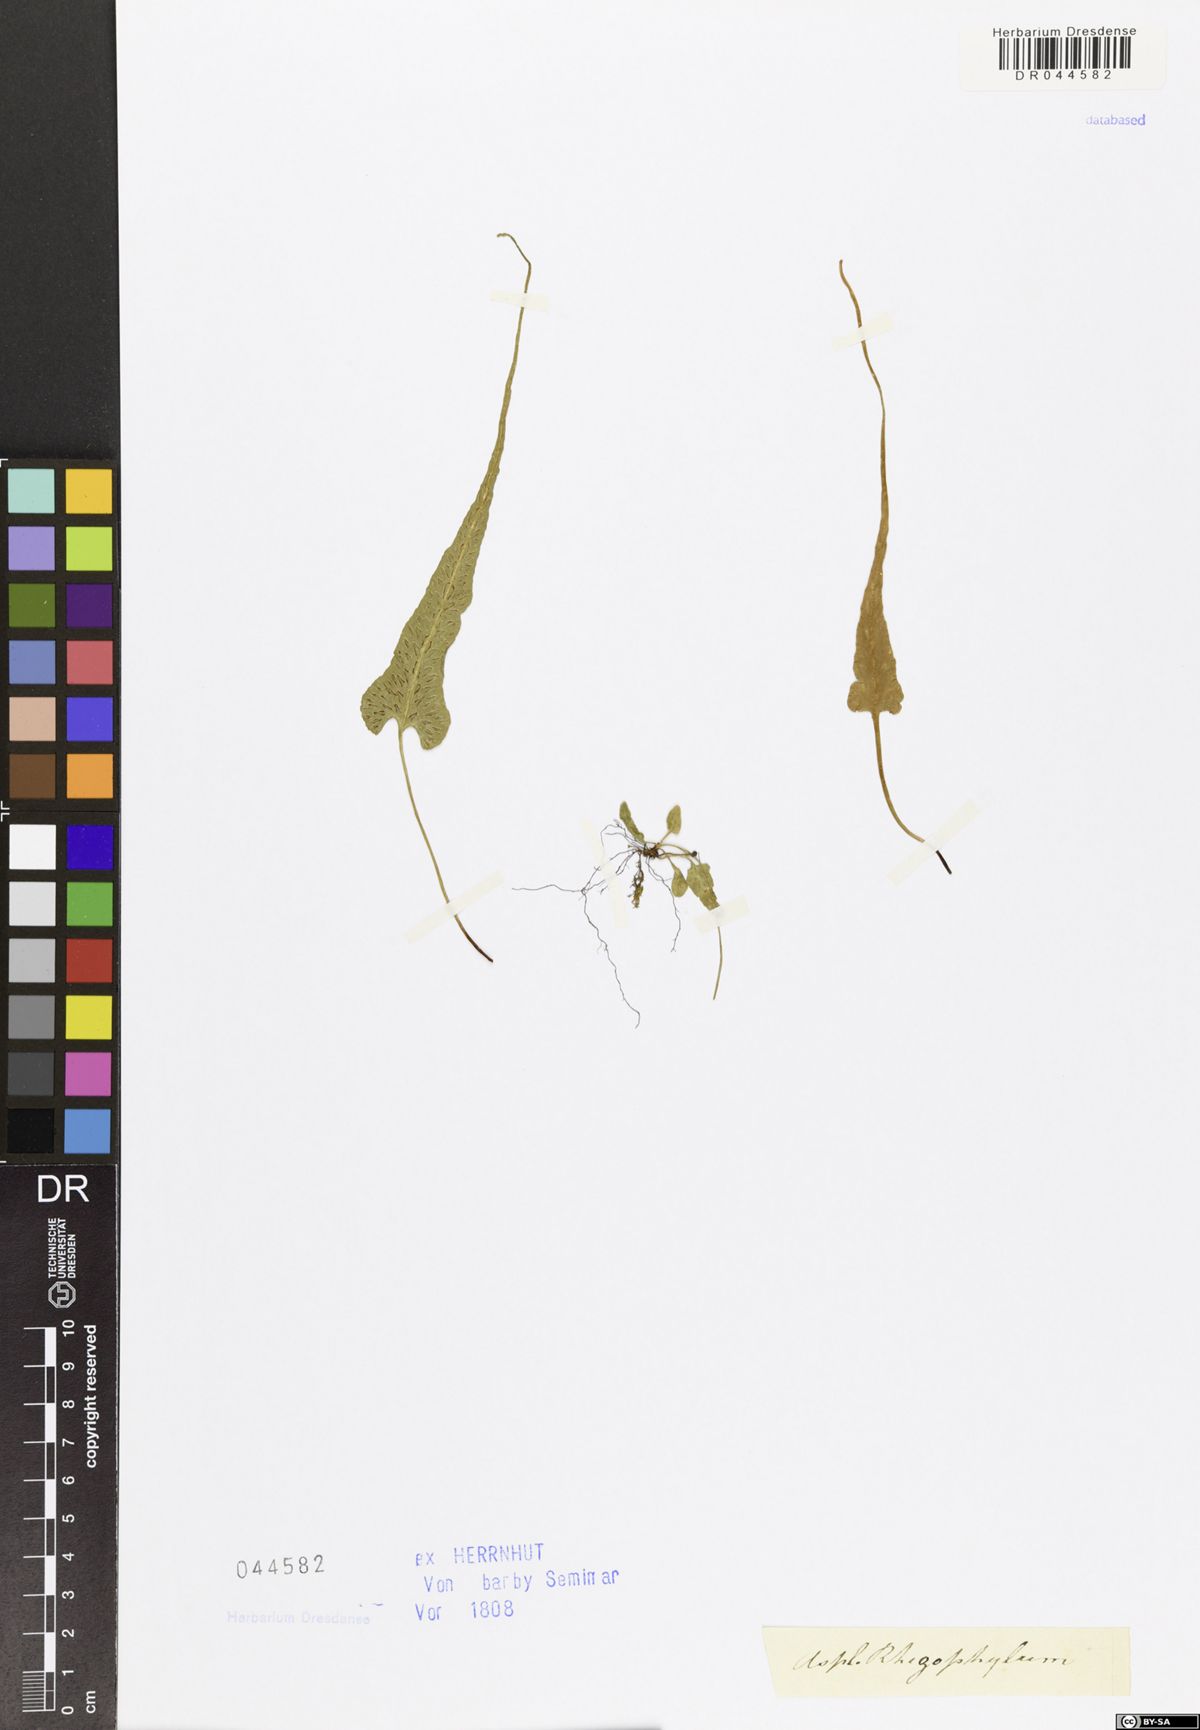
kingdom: Plantae
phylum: Tracheophyta
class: Polypodiopsida
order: Polypodiales
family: Aspleniaceae
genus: Asplenium
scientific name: Asplenium rhizophyllum
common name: Walking fern
